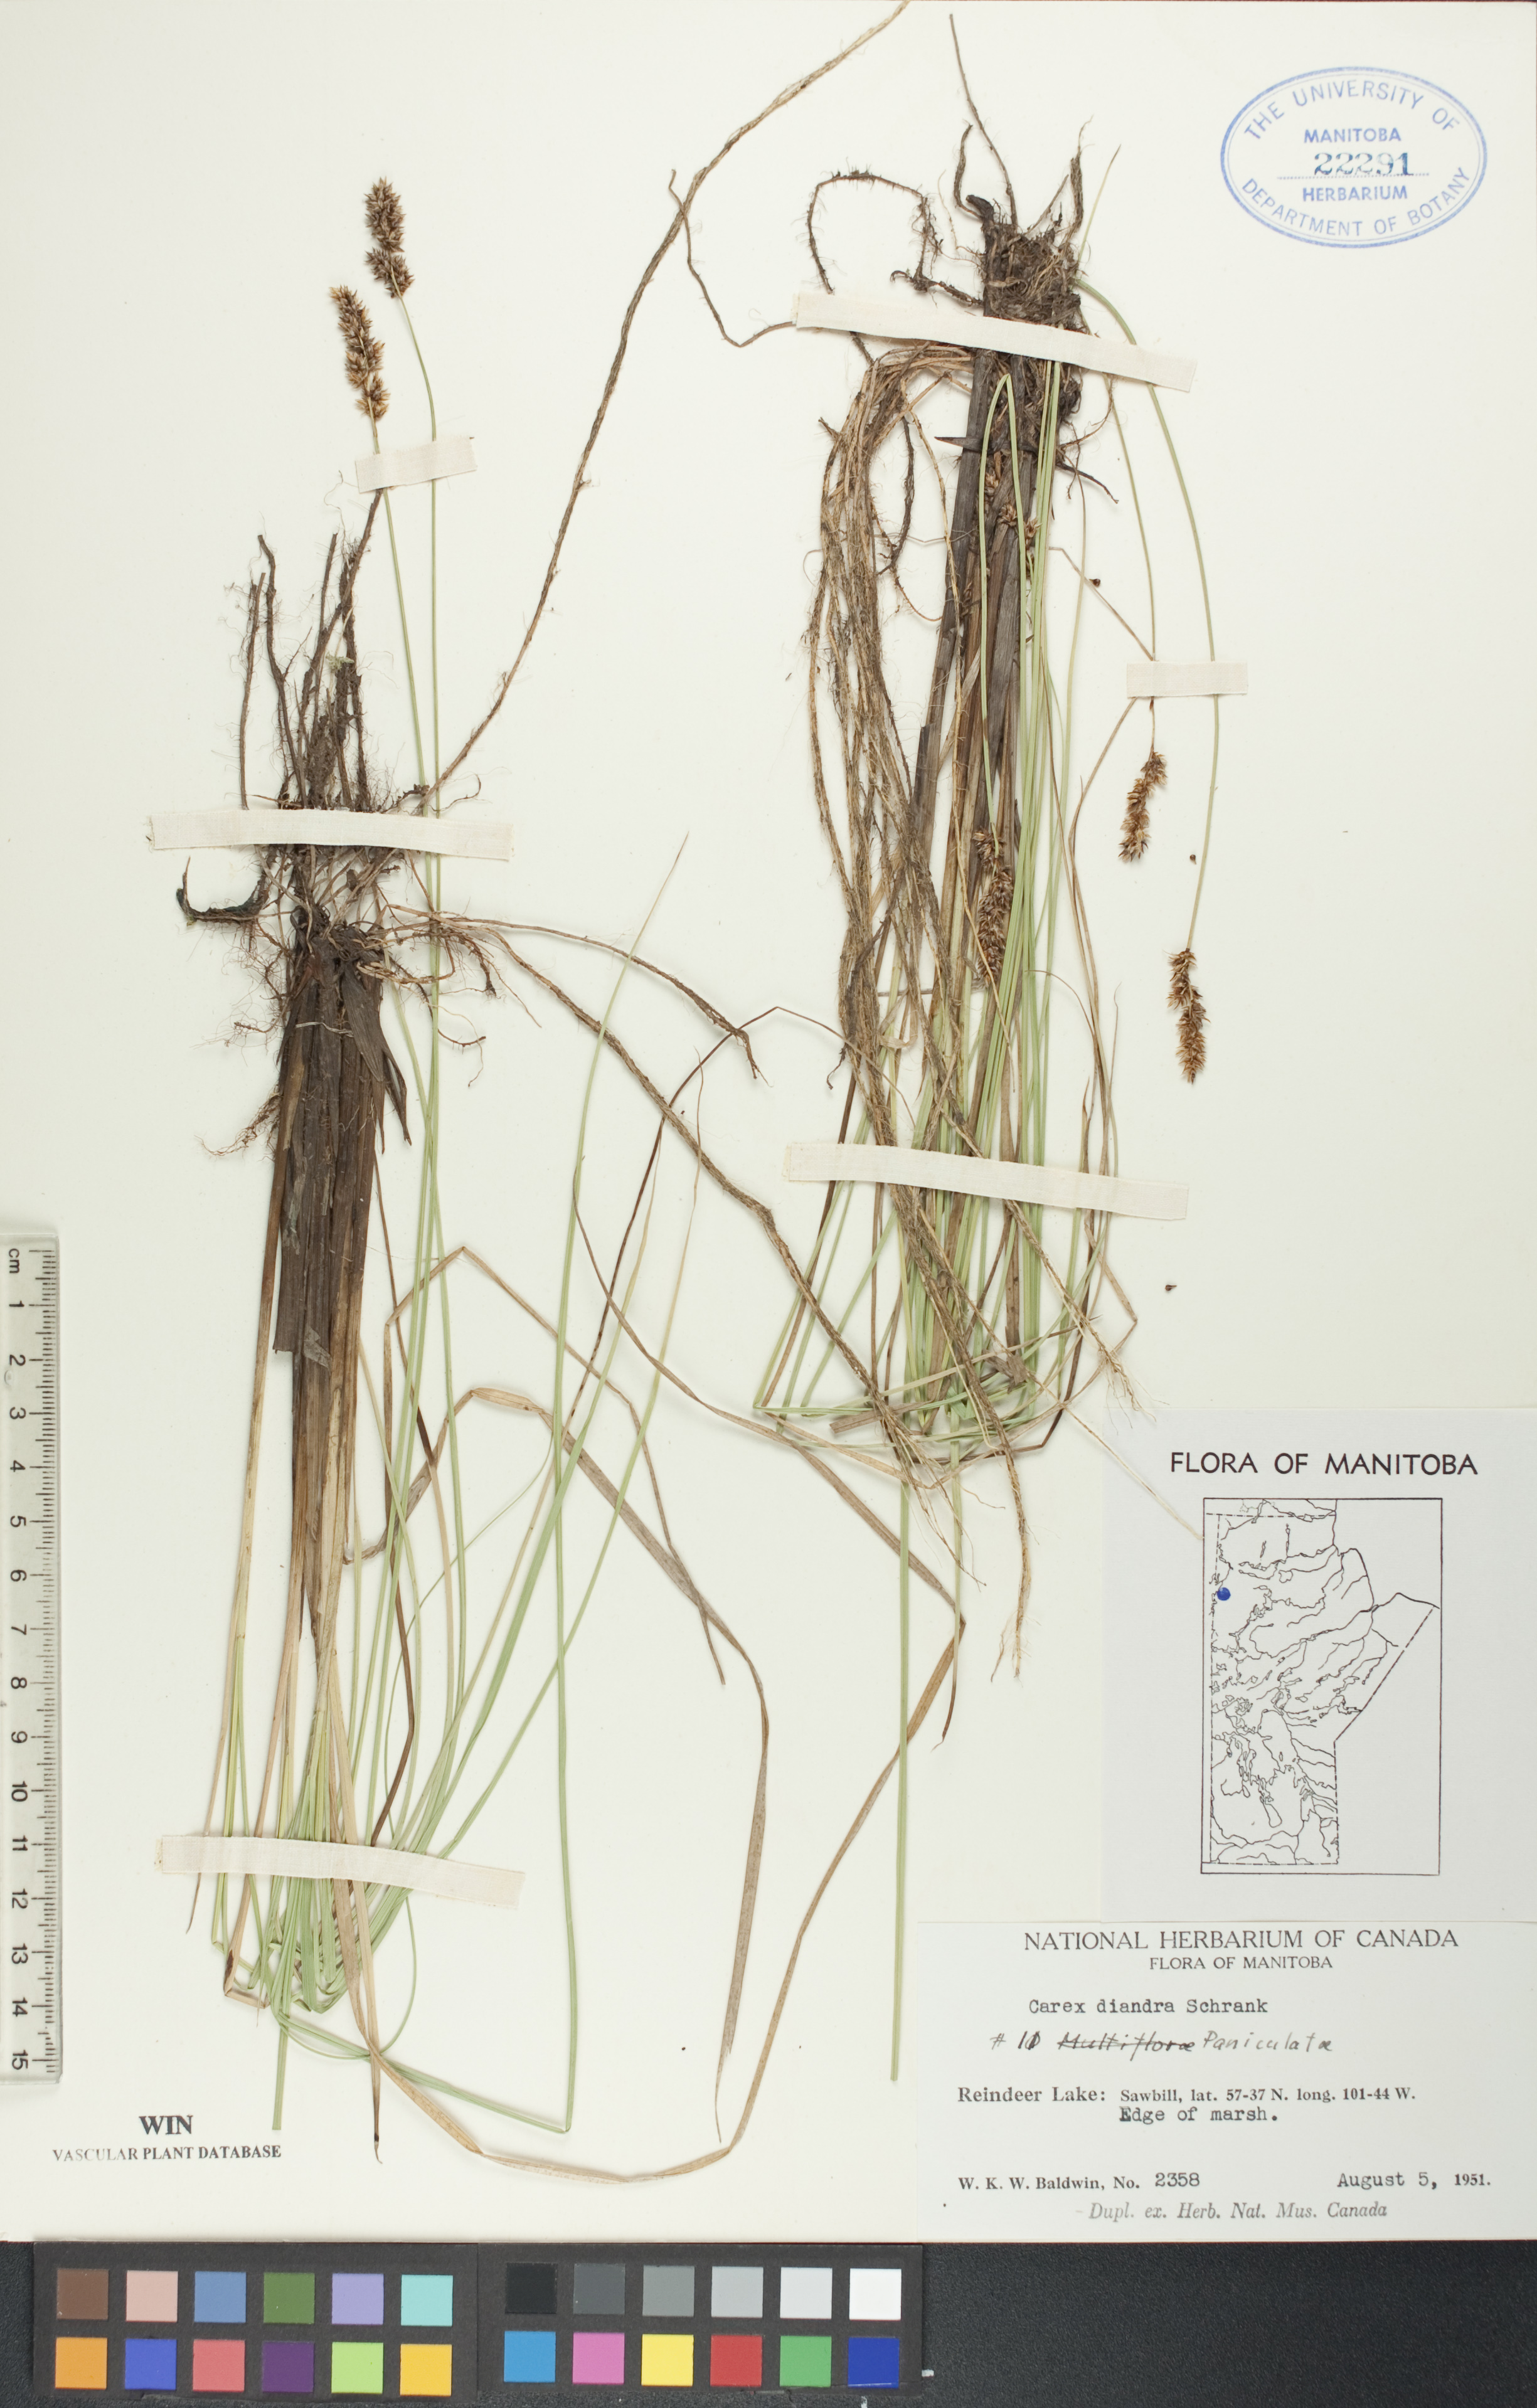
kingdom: Plantae
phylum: Tracheophyta
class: Liliopsida
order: Poales
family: Cyperaceae
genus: Carex
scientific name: Carex diandra
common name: Lesser tussock-sedge
